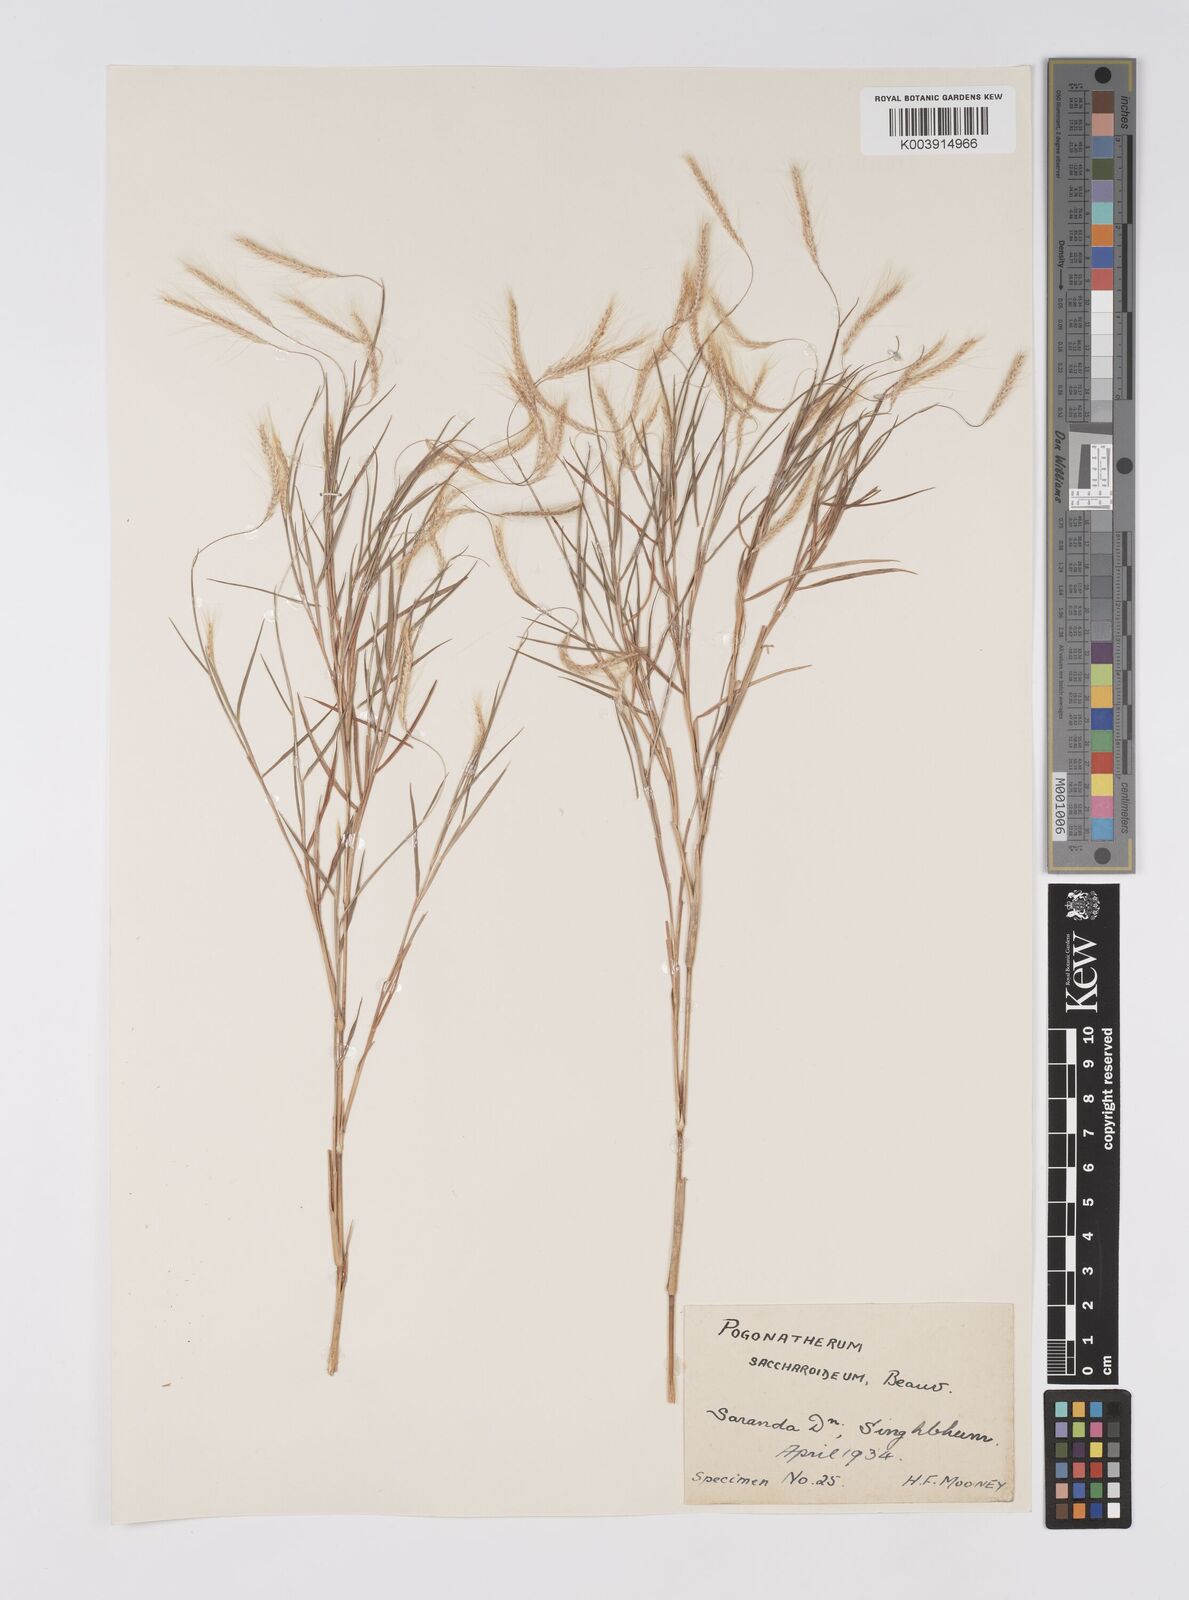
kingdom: Plantae
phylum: Tracheophyta
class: Liliopsida
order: Poales
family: Poaceae
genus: Pogonatherum
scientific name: Pogonatherum paniceum
